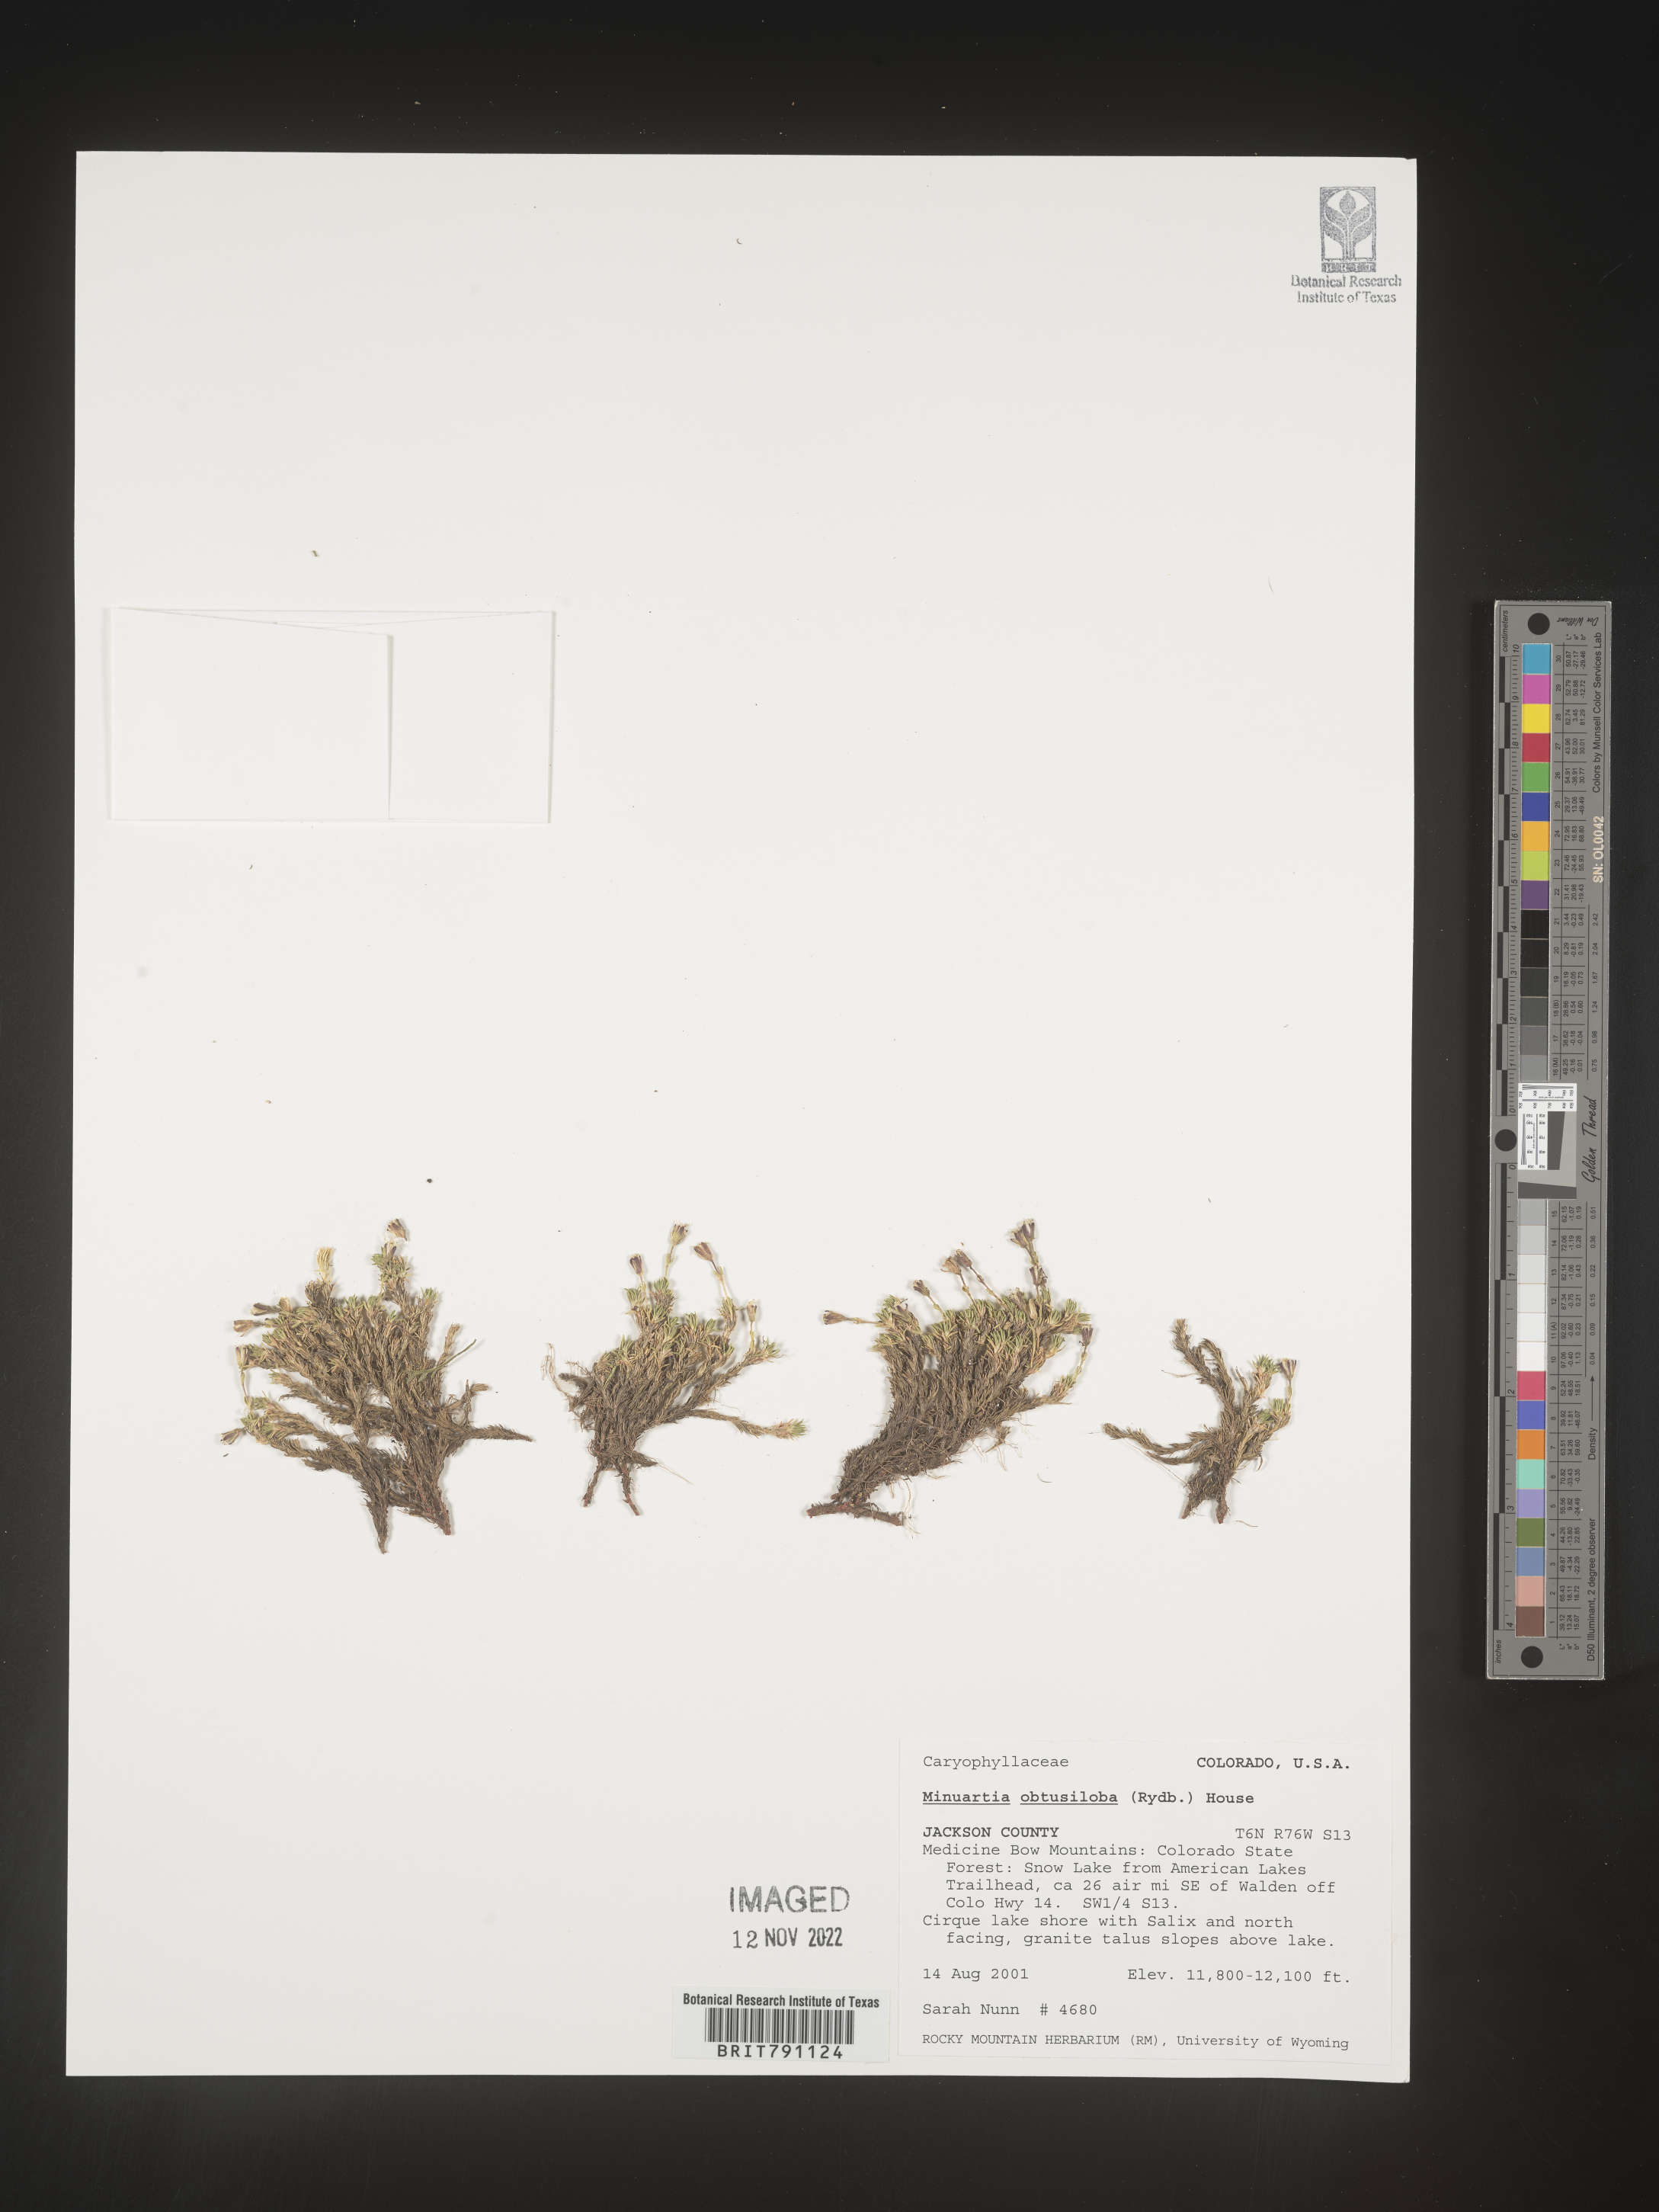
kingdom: Plantae
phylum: Tracheophyta
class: Magnoliopsida
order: Caryophyllales
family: Caryophyllaceae
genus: Cherleria
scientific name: Cherleria obtusiloba
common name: Alpine stitchwort
